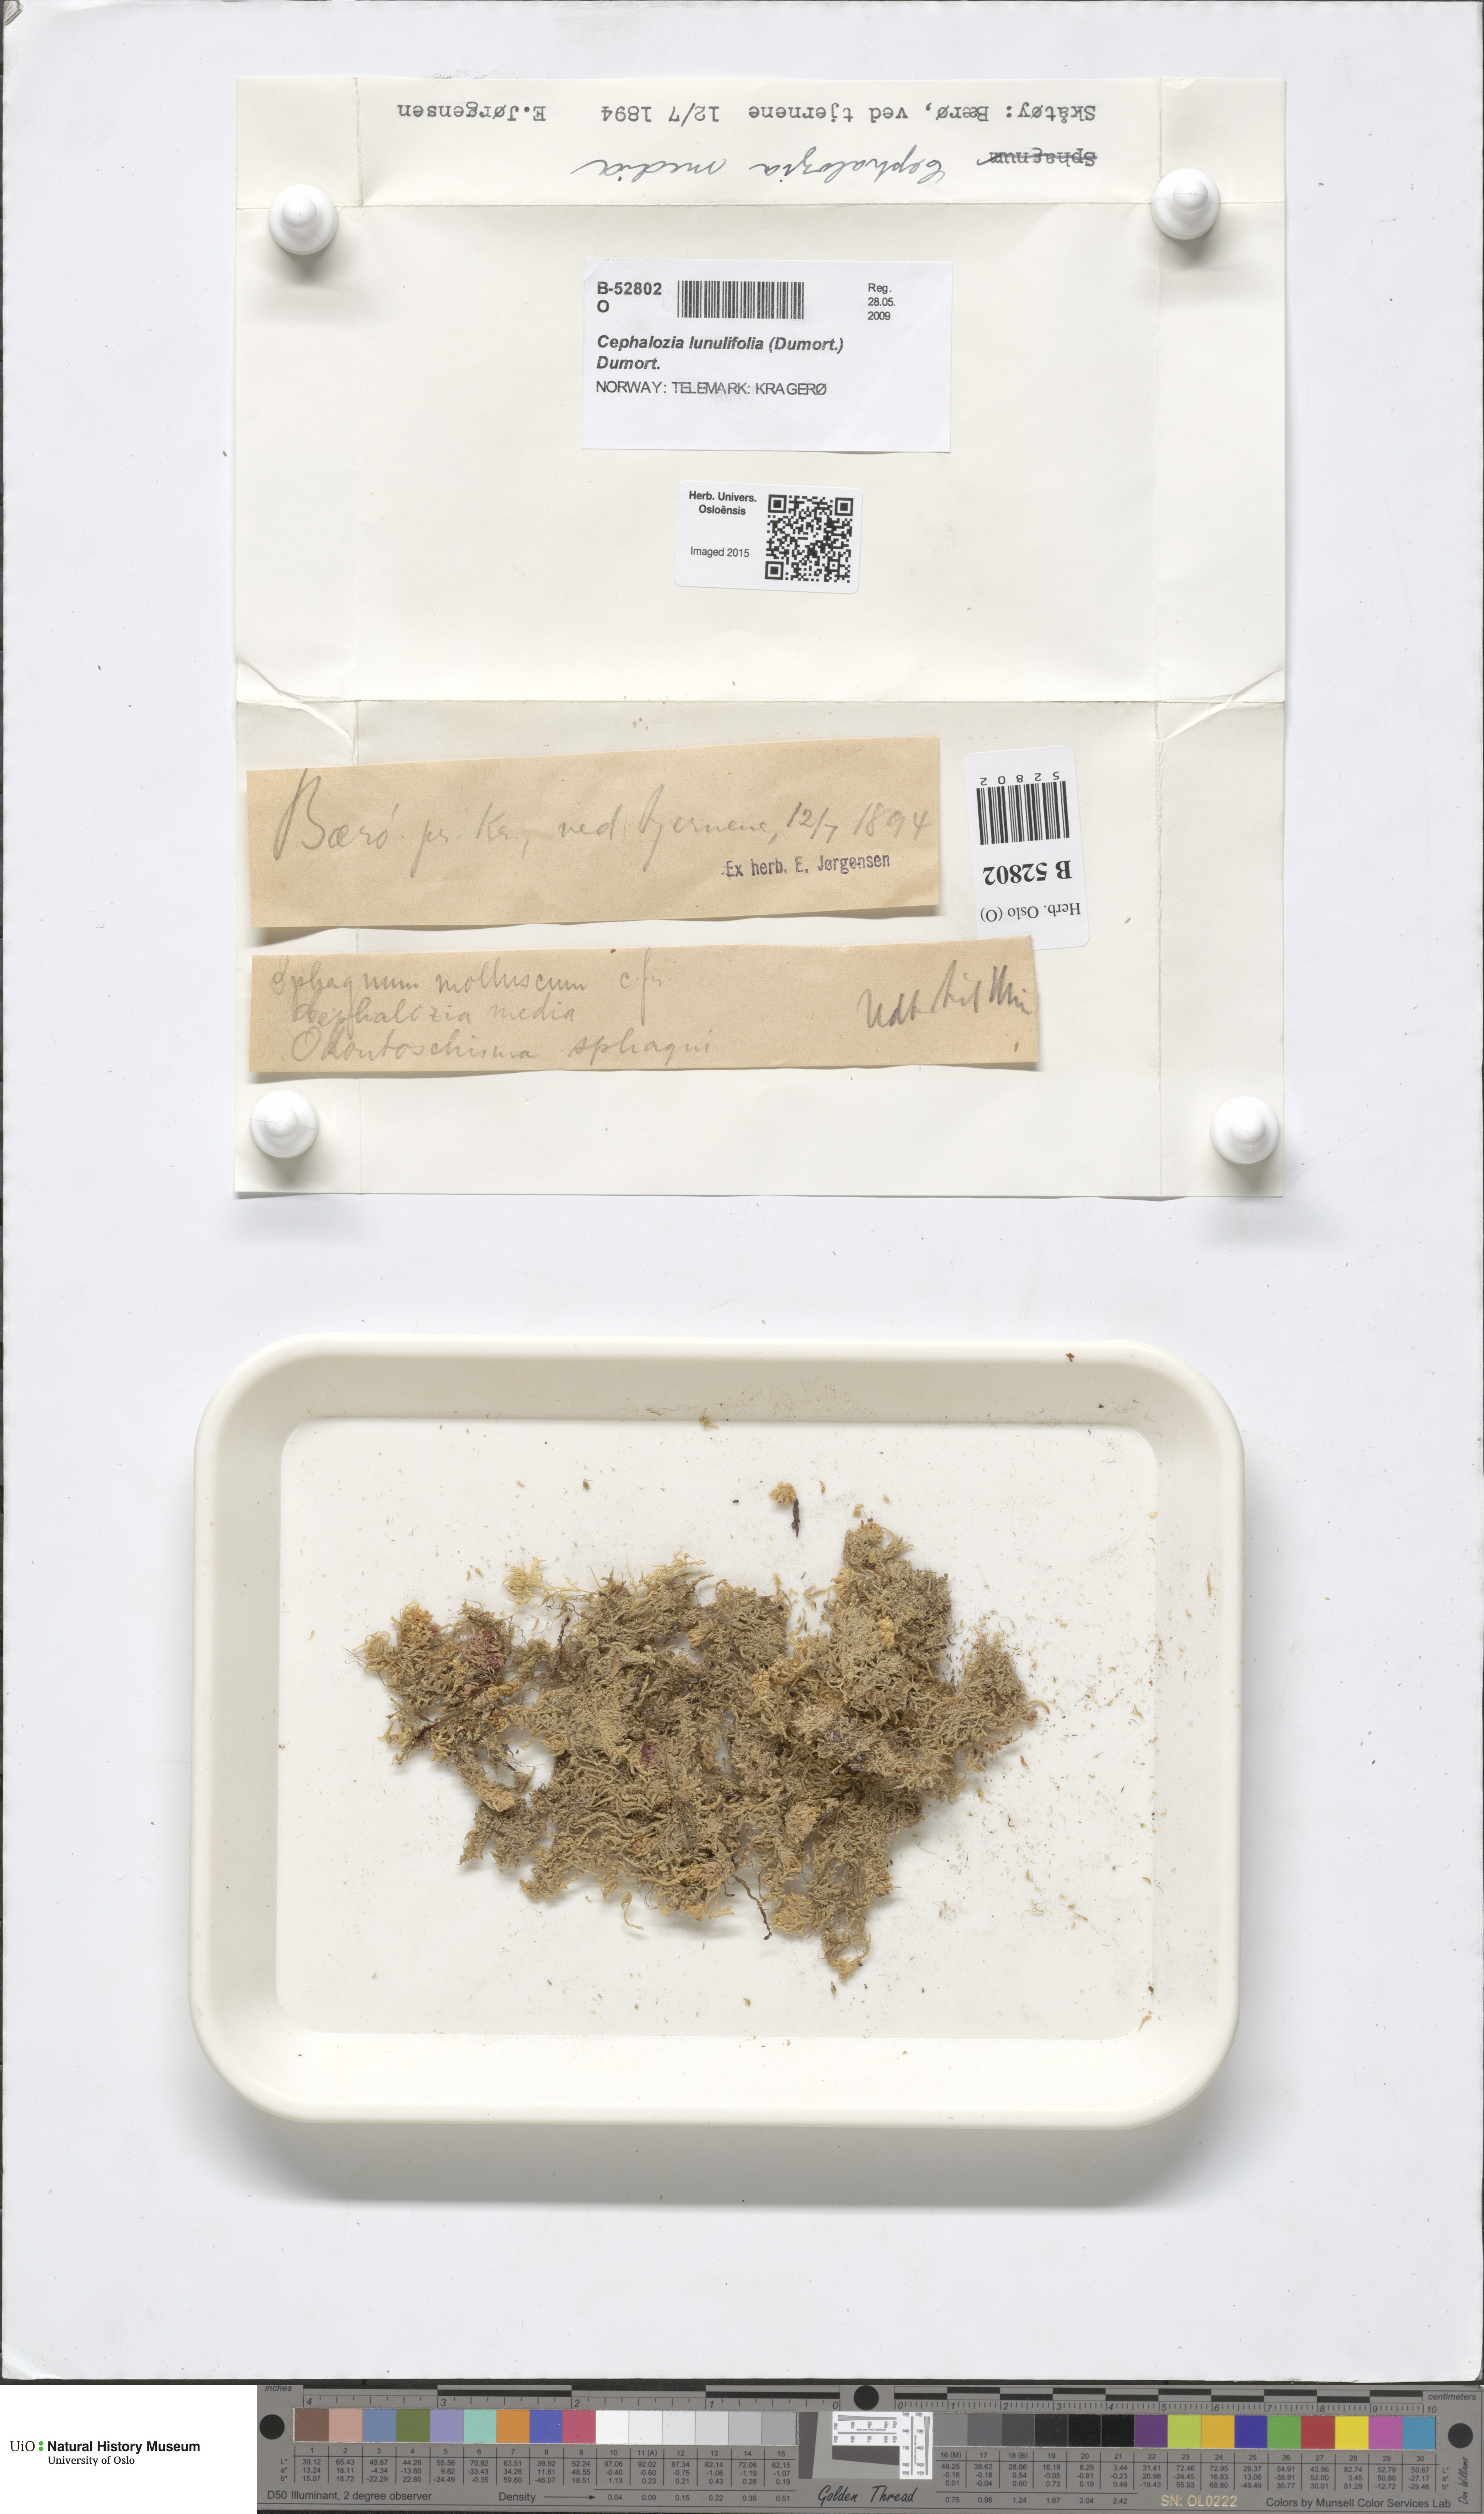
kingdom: Plantae
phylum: Marchantiophyta
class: Jungermanniopsida
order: Jungermanniales
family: Cephaloziaceae
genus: Fuscocephaloziopsis
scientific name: Fuscocephaloziopsis lunulifolia
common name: Moon-leaved pincerwort
